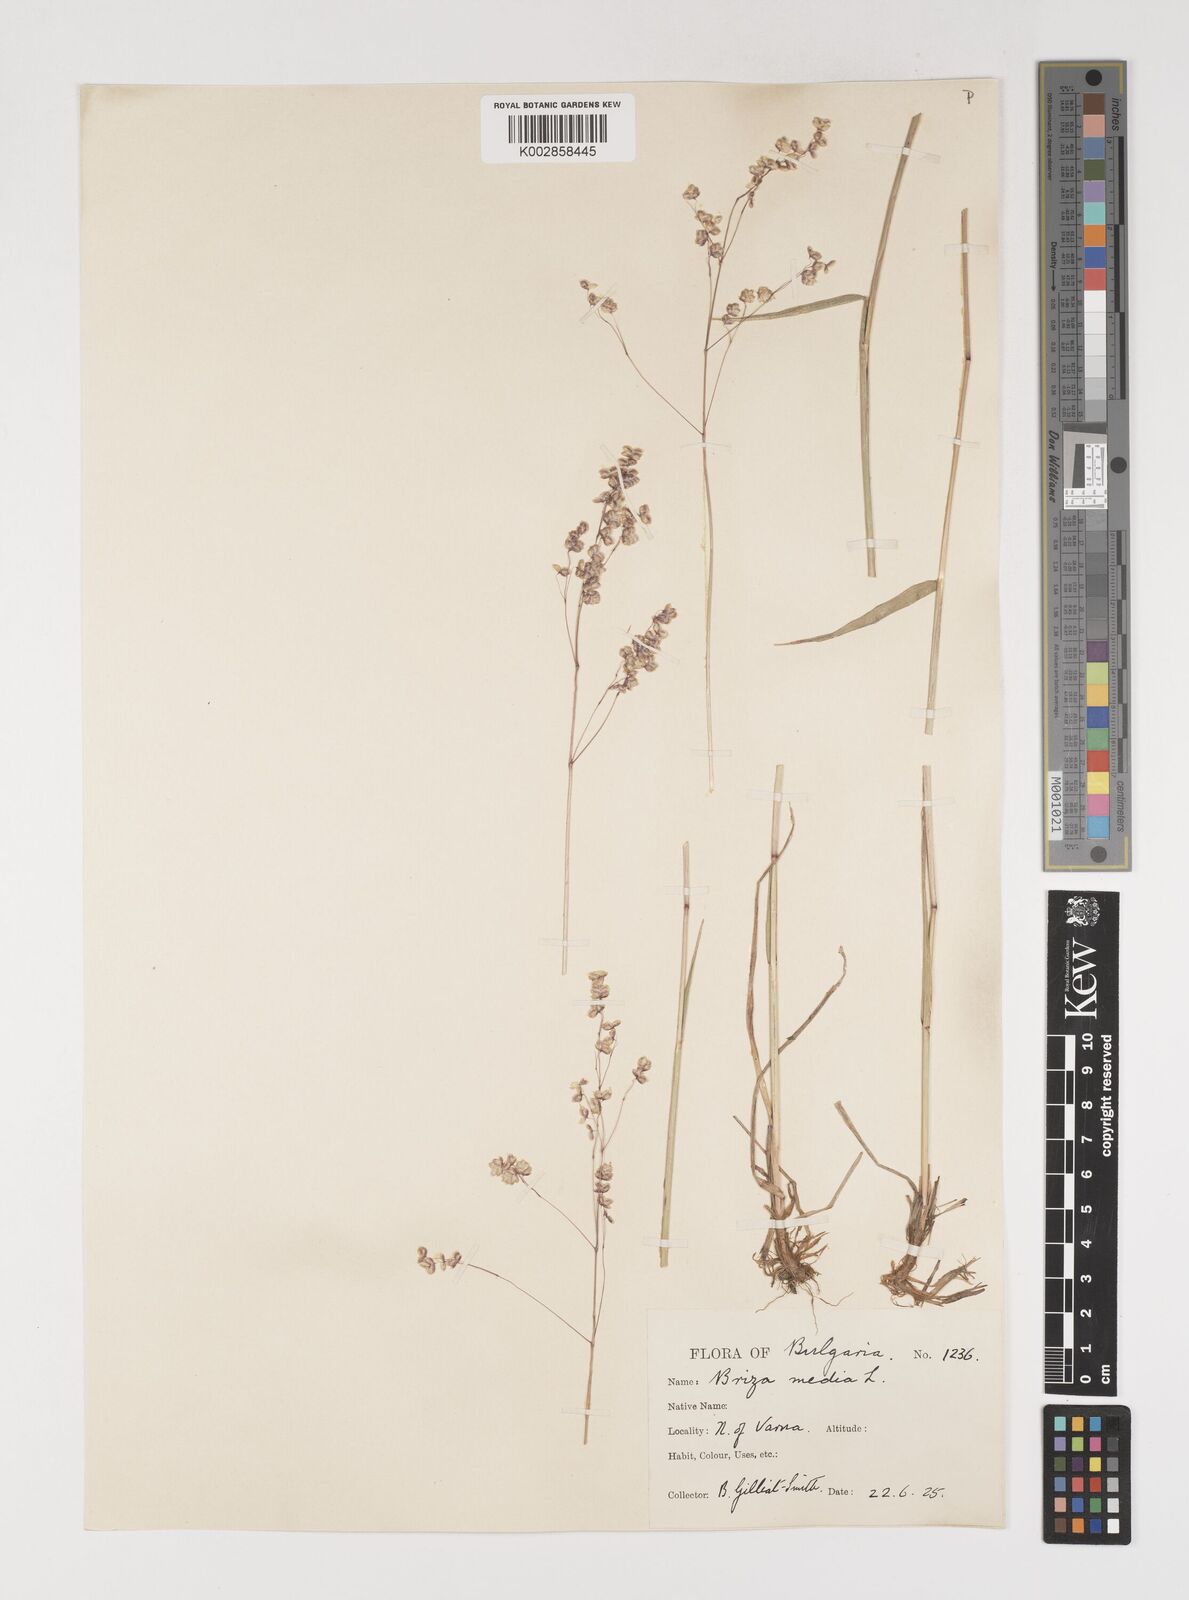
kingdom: Plantae
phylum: Tracheophyta
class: Liliopsida
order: Poales
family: Poaceae
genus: Briza
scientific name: Briza media
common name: Quaking grass
